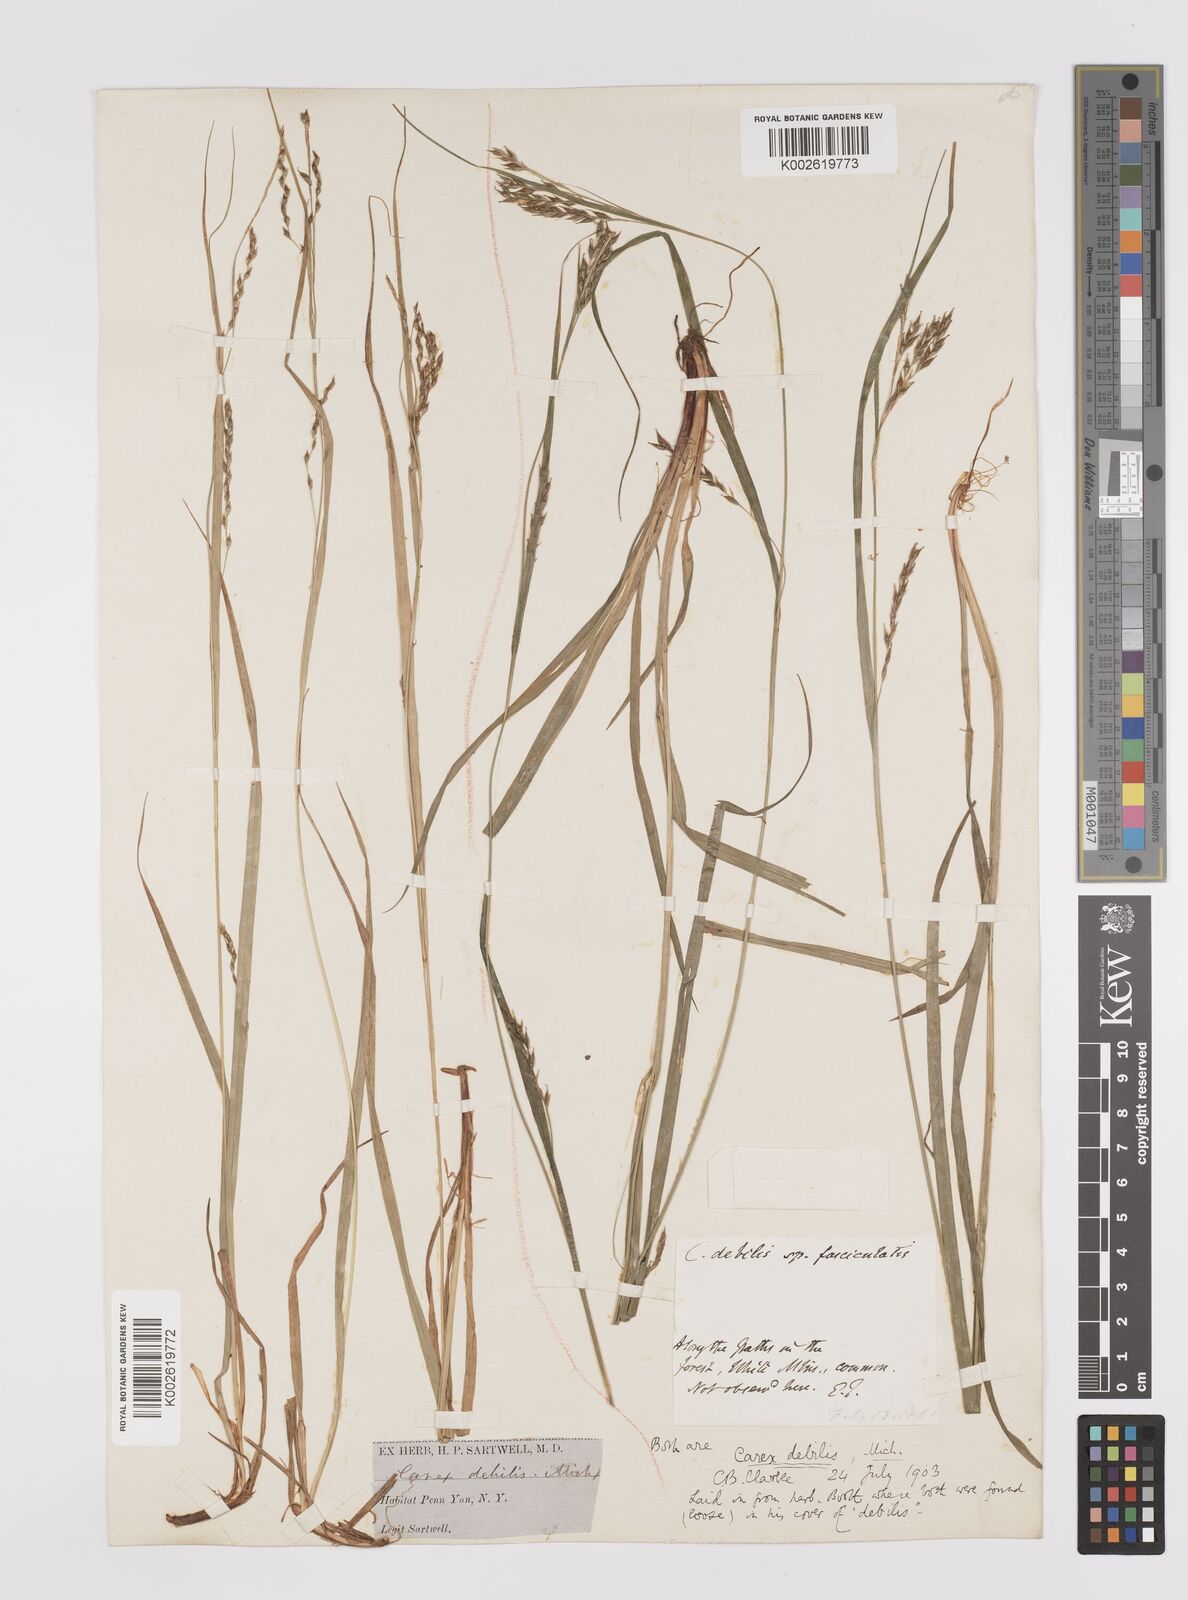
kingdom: Plantae
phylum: Tracheophyta
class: Liliopsida
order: Poales
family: Cyperaceae
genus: Carex
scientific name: Carex debilis
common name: White-edge sedge
